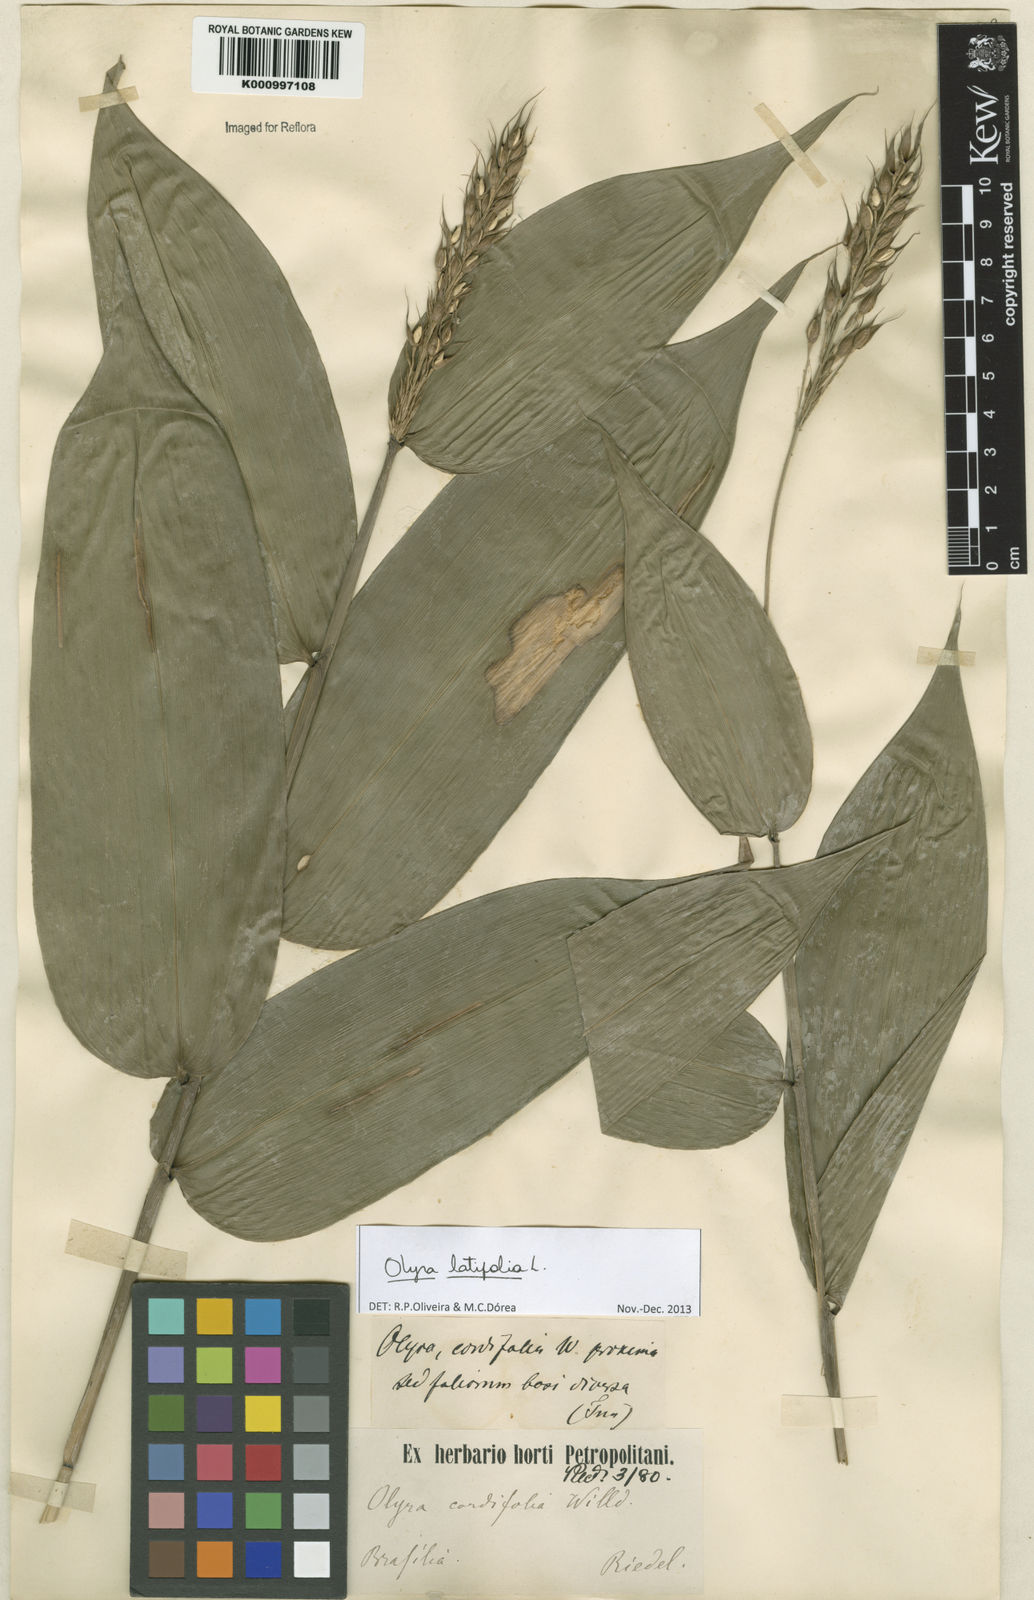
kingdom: Plantae
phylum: Tracheophyta
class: Liliopsida
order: Poales
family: Poaceae
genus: Olyra
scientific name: Olyra latifolia
